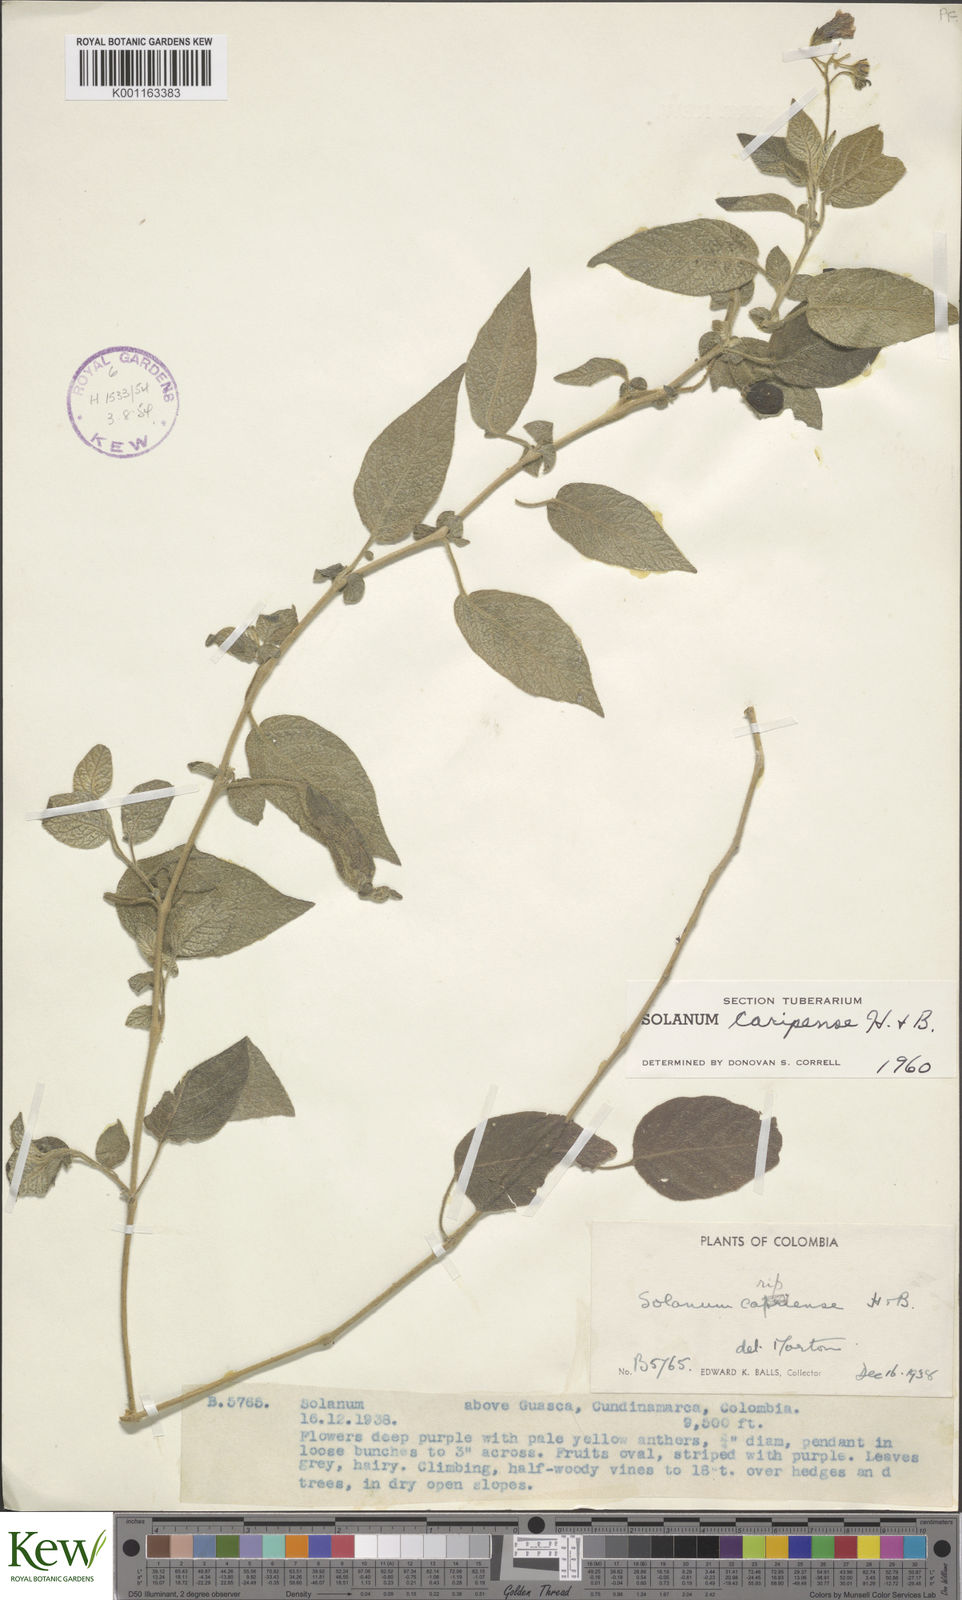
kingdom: Plantae
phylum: Tracheophyta
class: Magnoliopsida
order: Solanales
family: Solanaceae
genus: Solanum
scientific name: Solanum caripense
